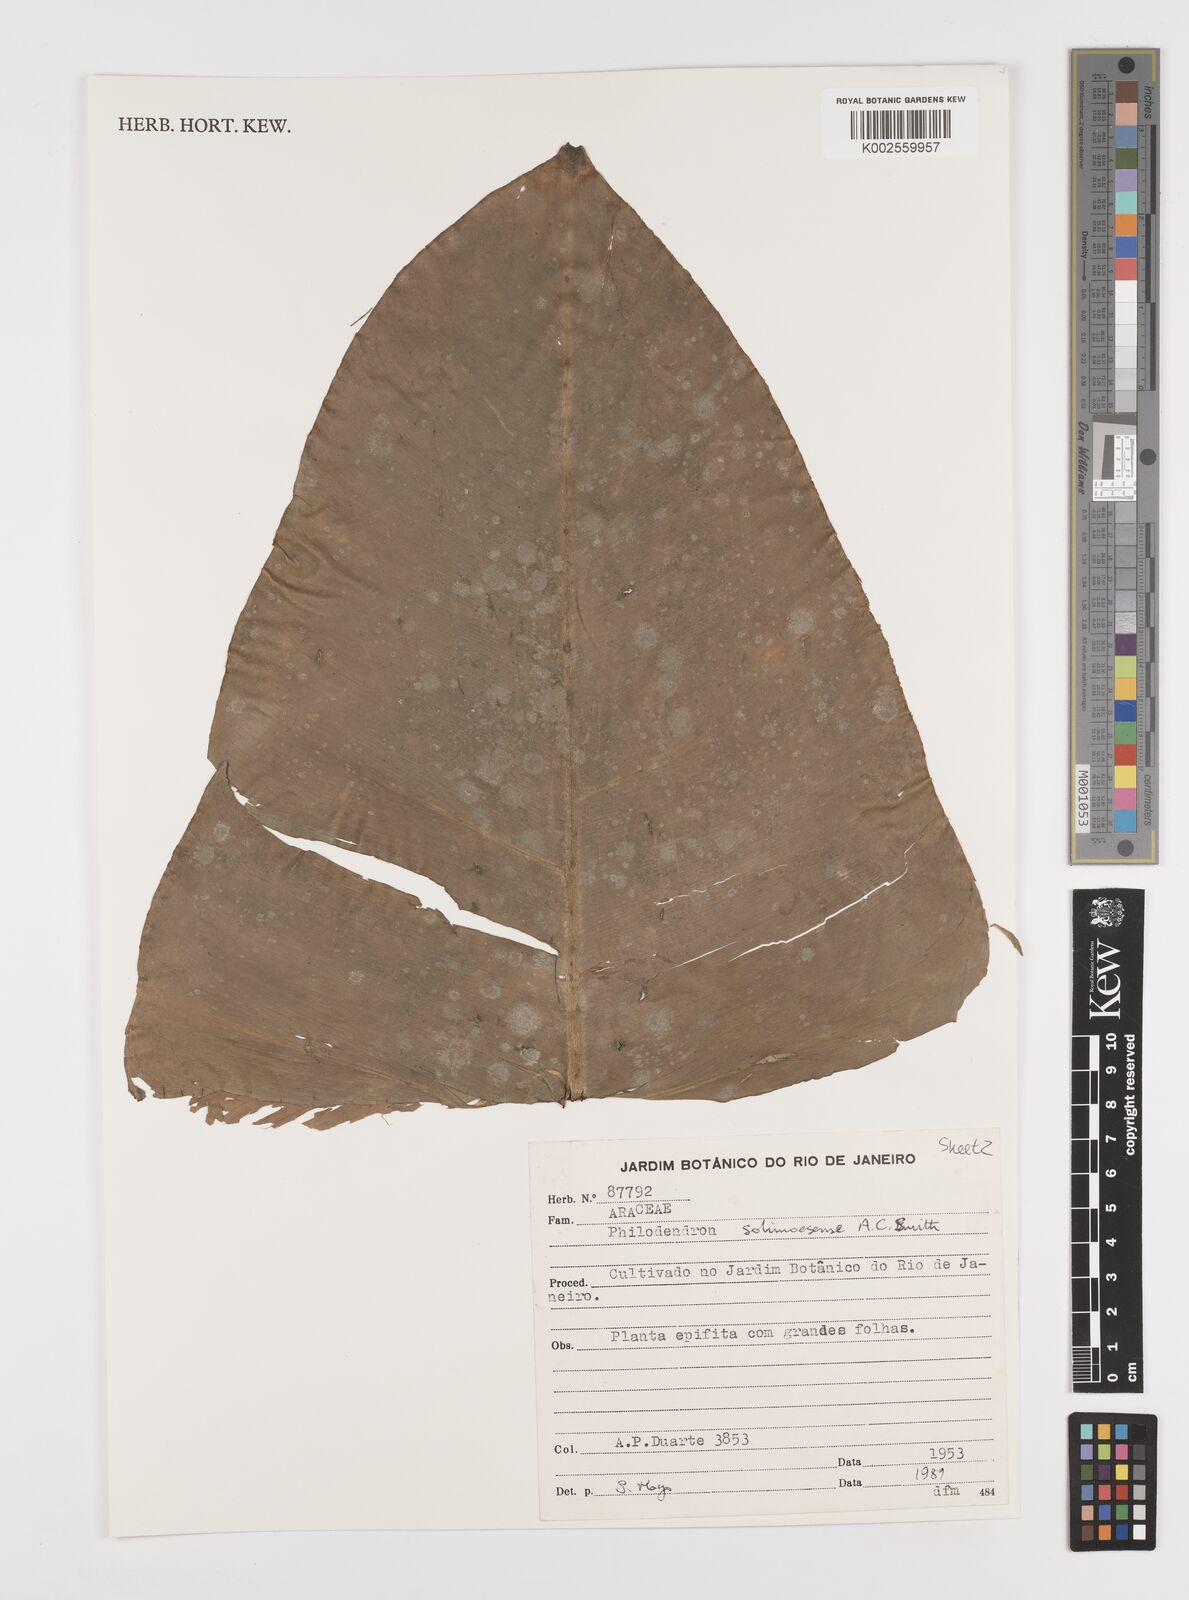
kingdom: Plantae
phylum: Tracheophyta
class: Liliopsida
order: Alismatales
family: Araceae
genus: Thaumatophyllum
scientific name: Thaumatophyllum solimoesense
